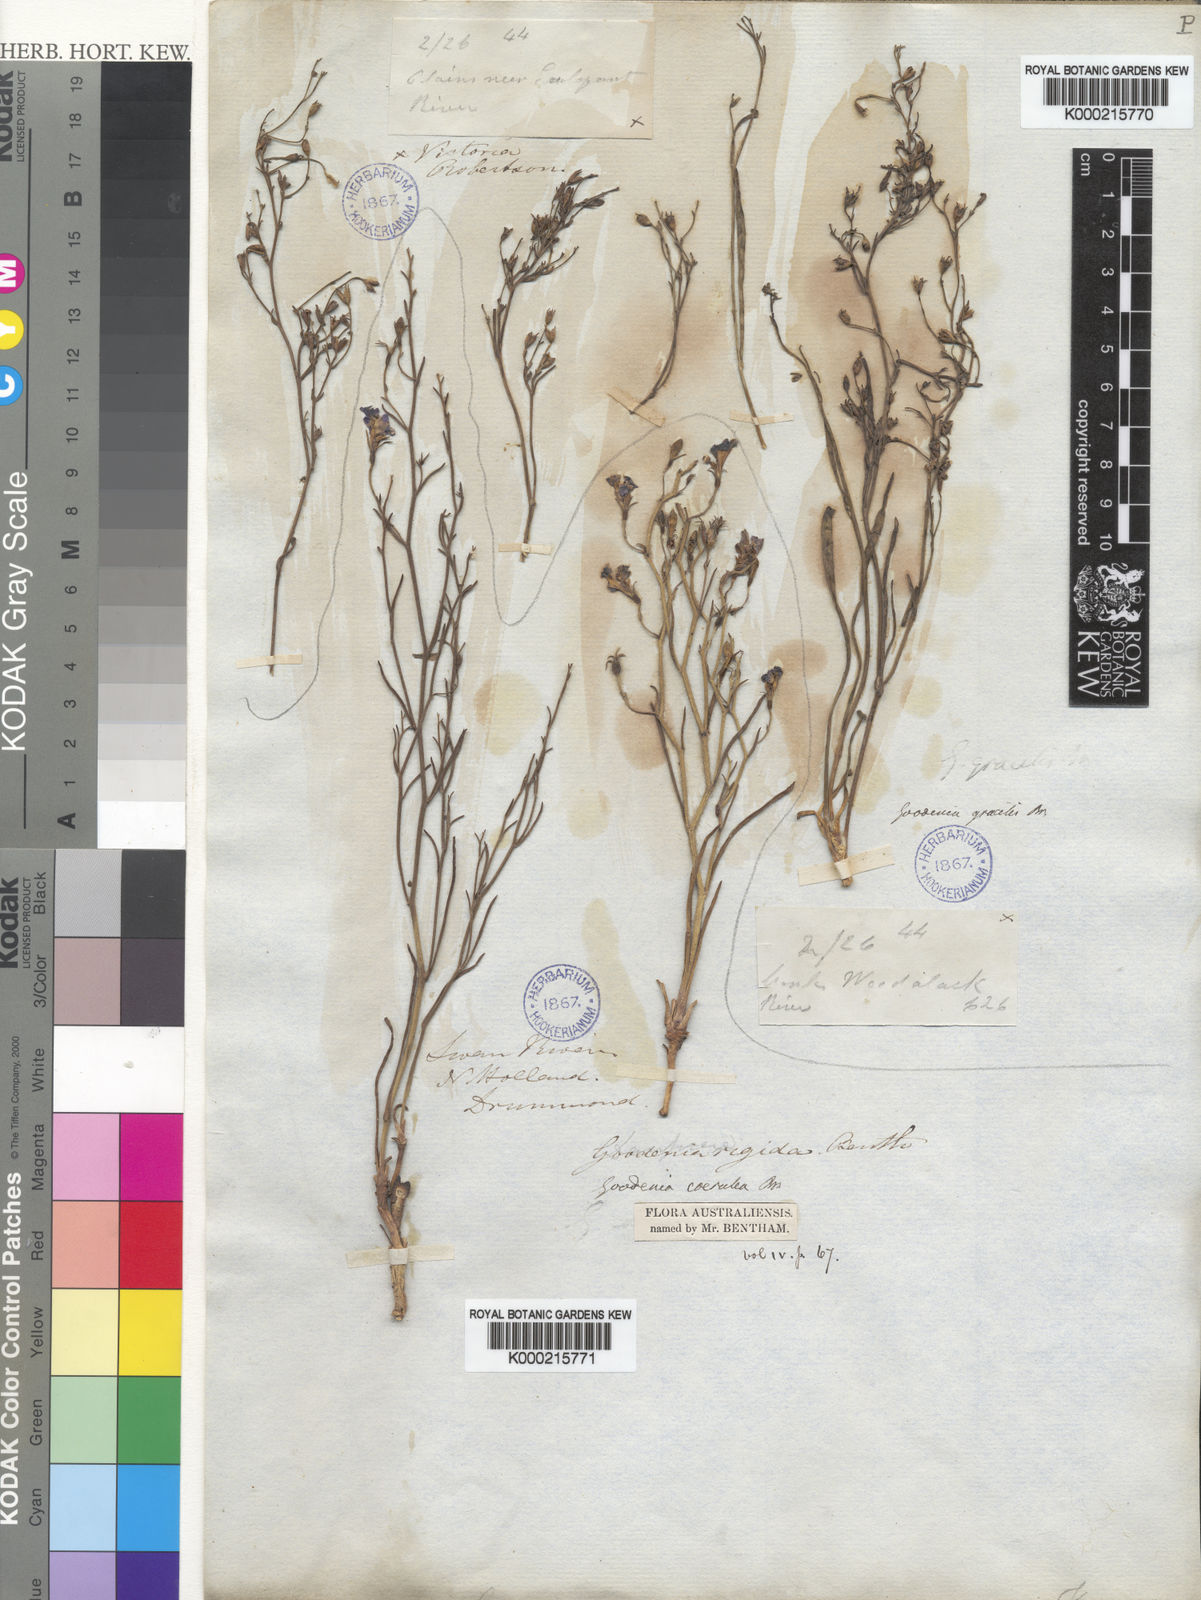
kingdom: Plantae
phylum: Tracheophyta
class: Magnoliopsida
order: Asterales
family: Goodeniaceae
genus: Goodenia
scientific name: Goodenia gracilis
